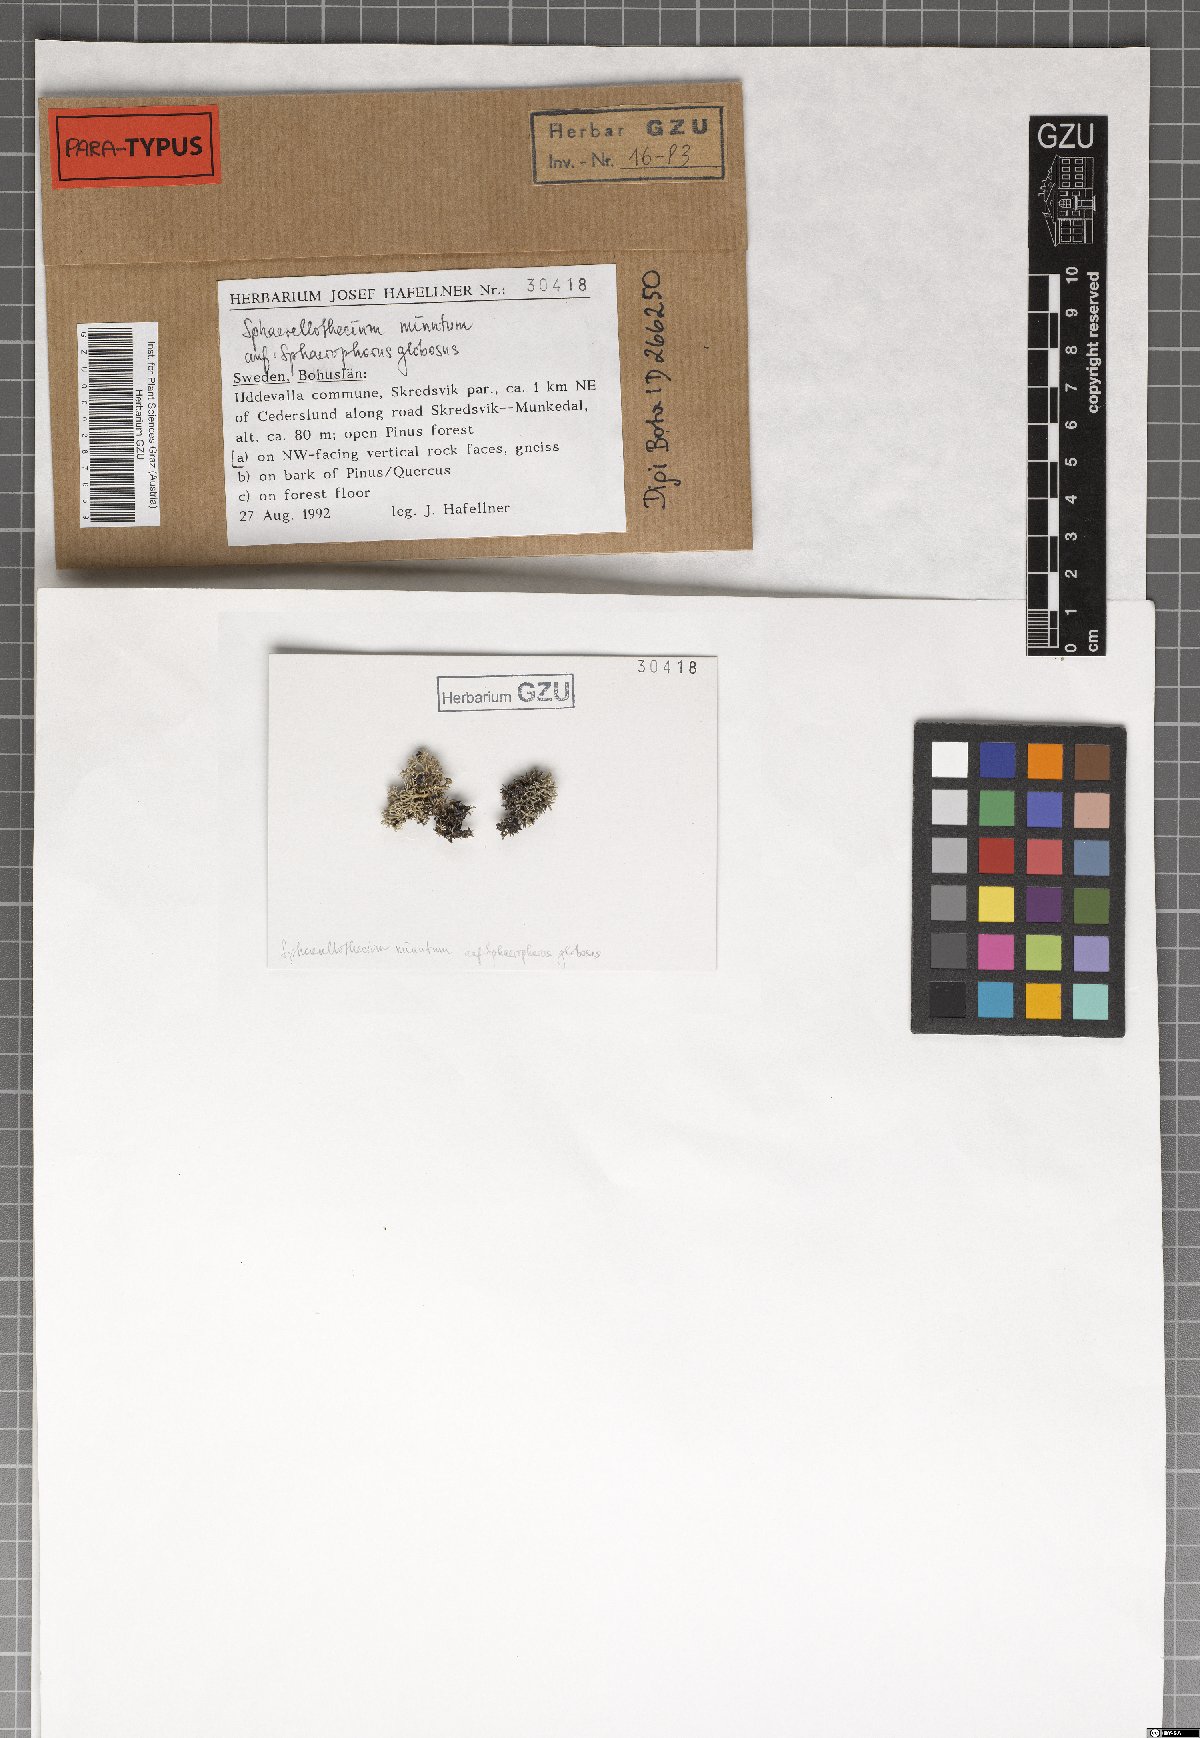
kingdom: Fungi
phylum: Ascomycota
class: Dothideomycetes
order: Mycosphaerellales
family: Mycosphaerellaceae
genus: Sphaerellothecium
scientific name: Sphaerellothecium minutum
